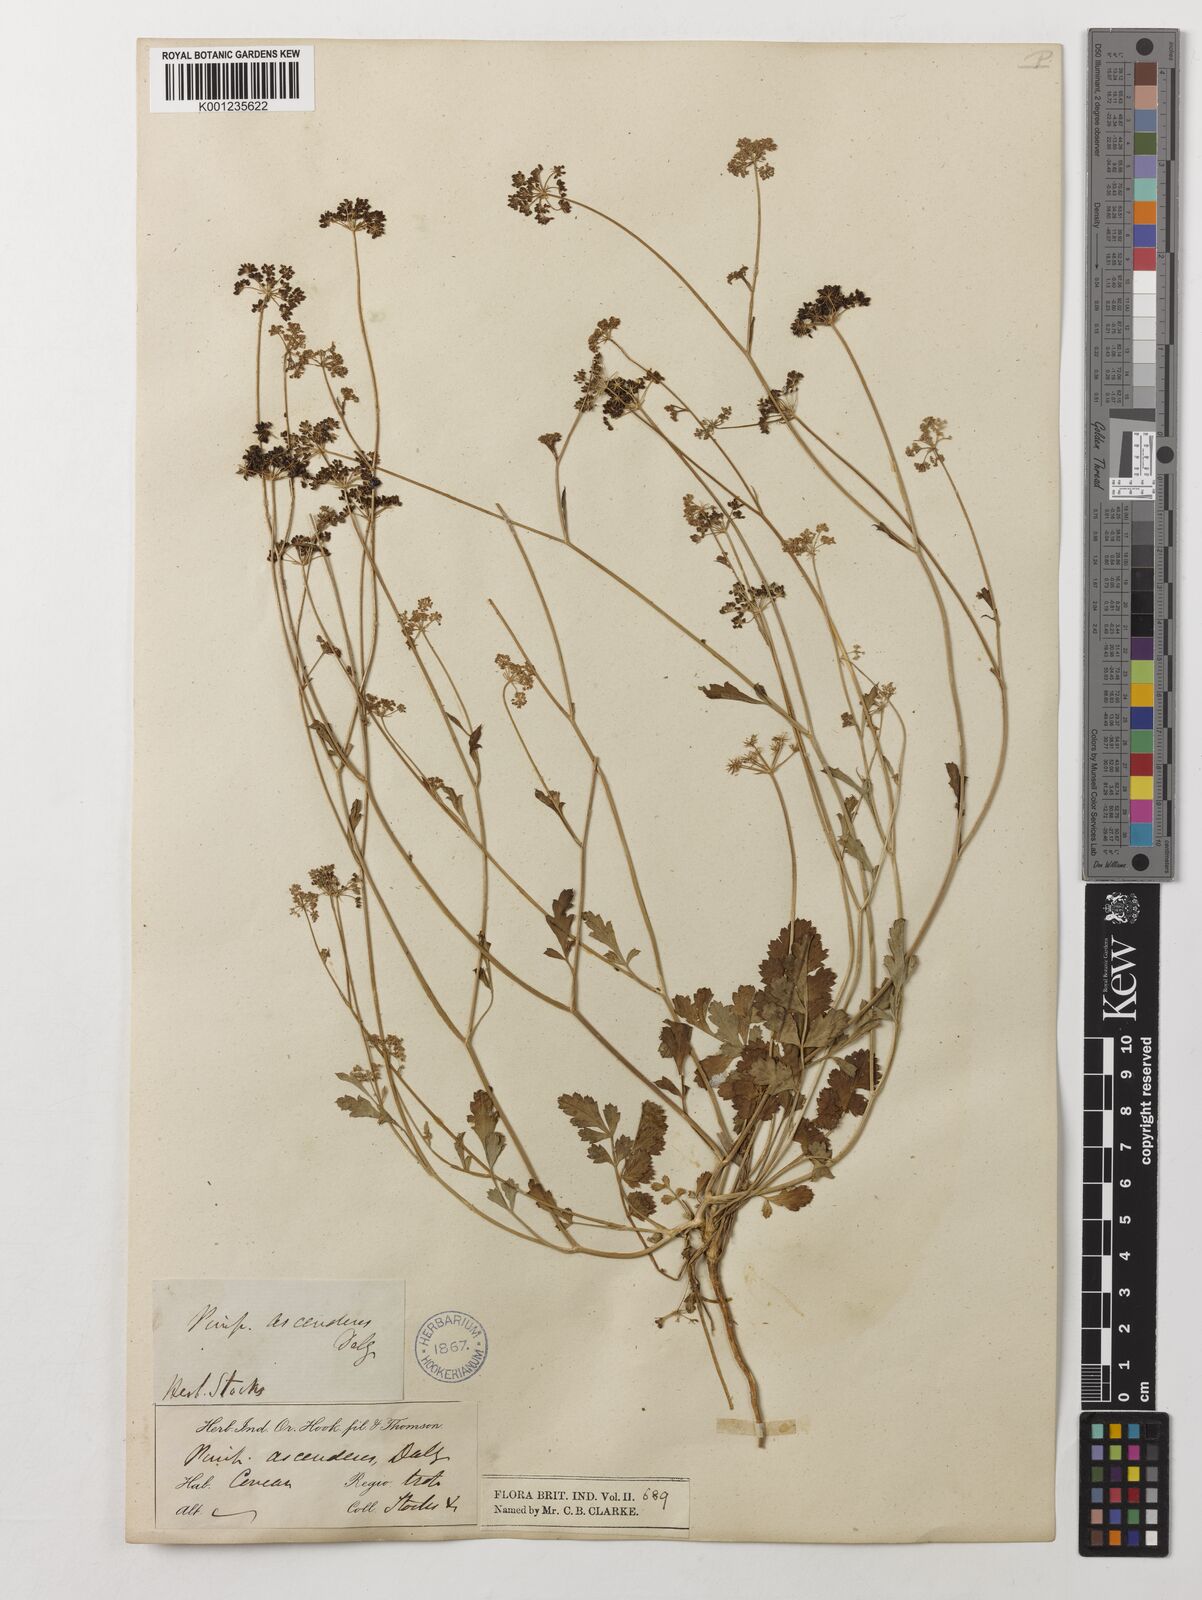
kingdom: Plantae
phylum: Tracheophyta
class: Magnoliopsida
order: Apiales
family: Apiaceae
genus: Pimpinella
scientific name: Pimpinella adscendens
